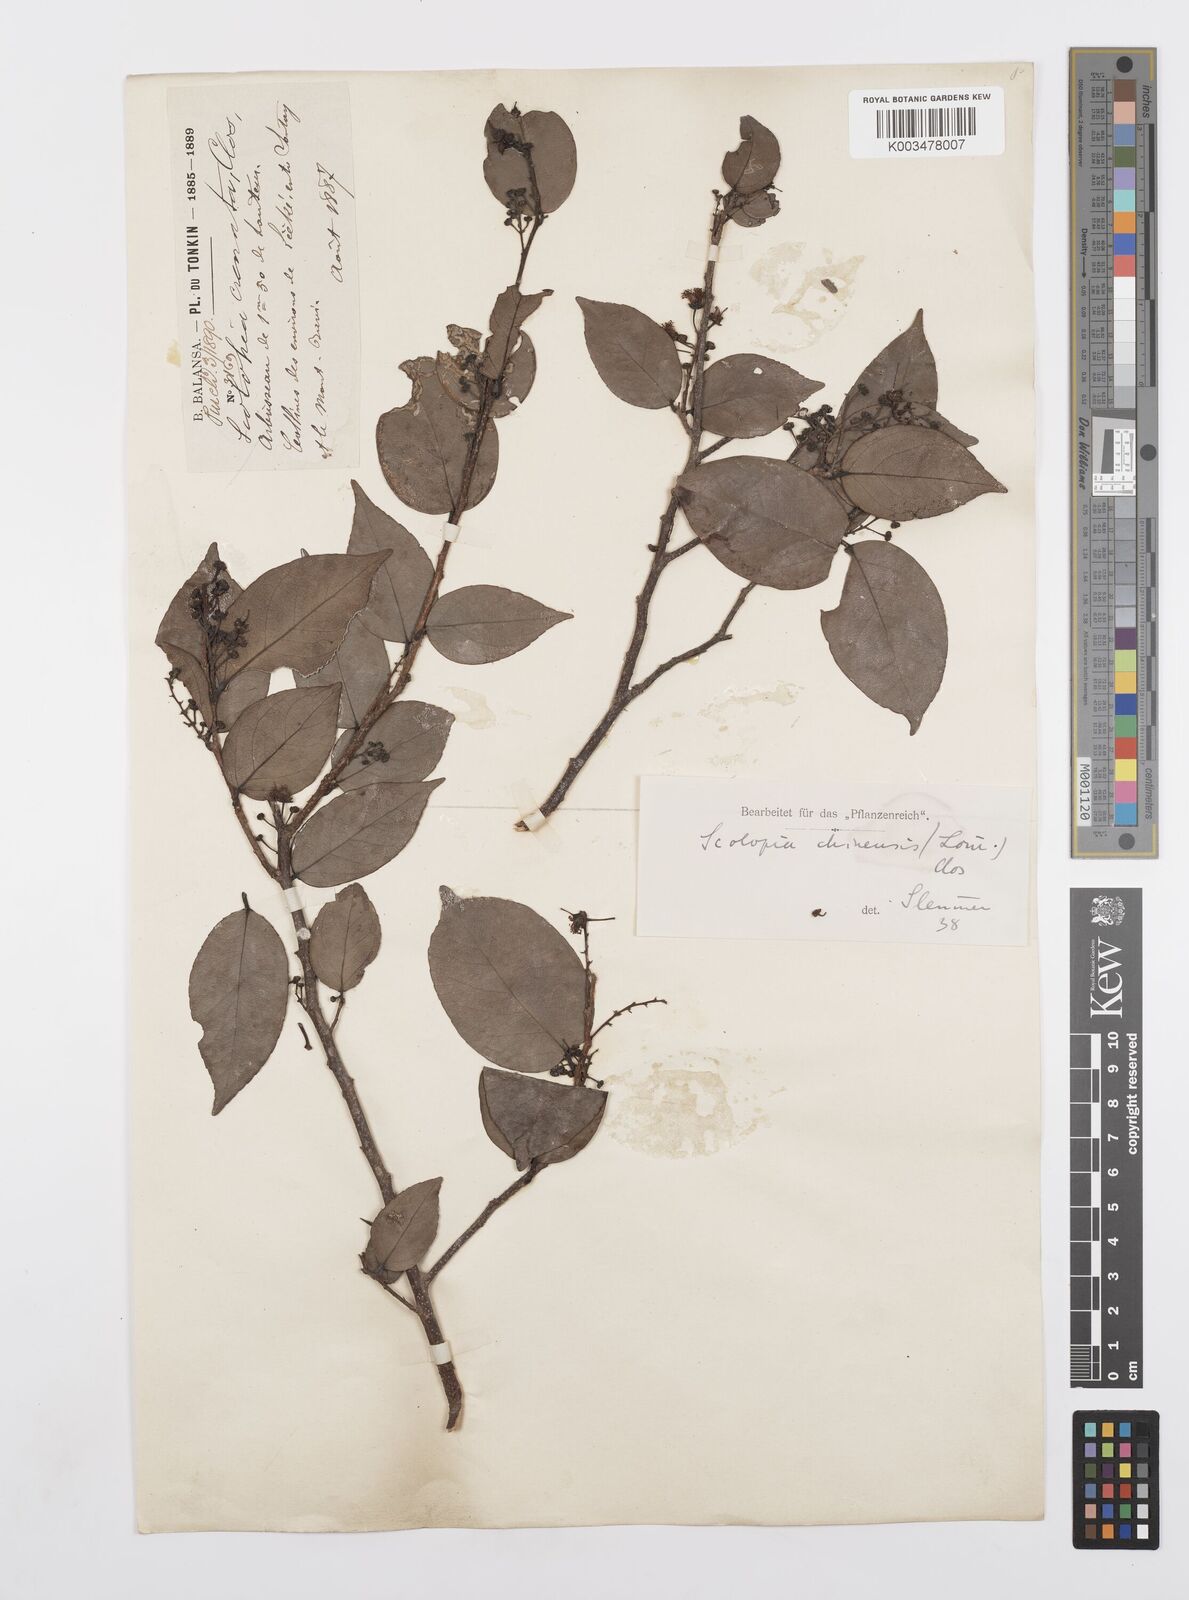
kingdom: Plantae
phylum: Tracheophyta
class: Magnoliopsida
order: Malpighiales
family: Salicaceae
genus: Scolopia
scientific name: Scolopia chinensis
